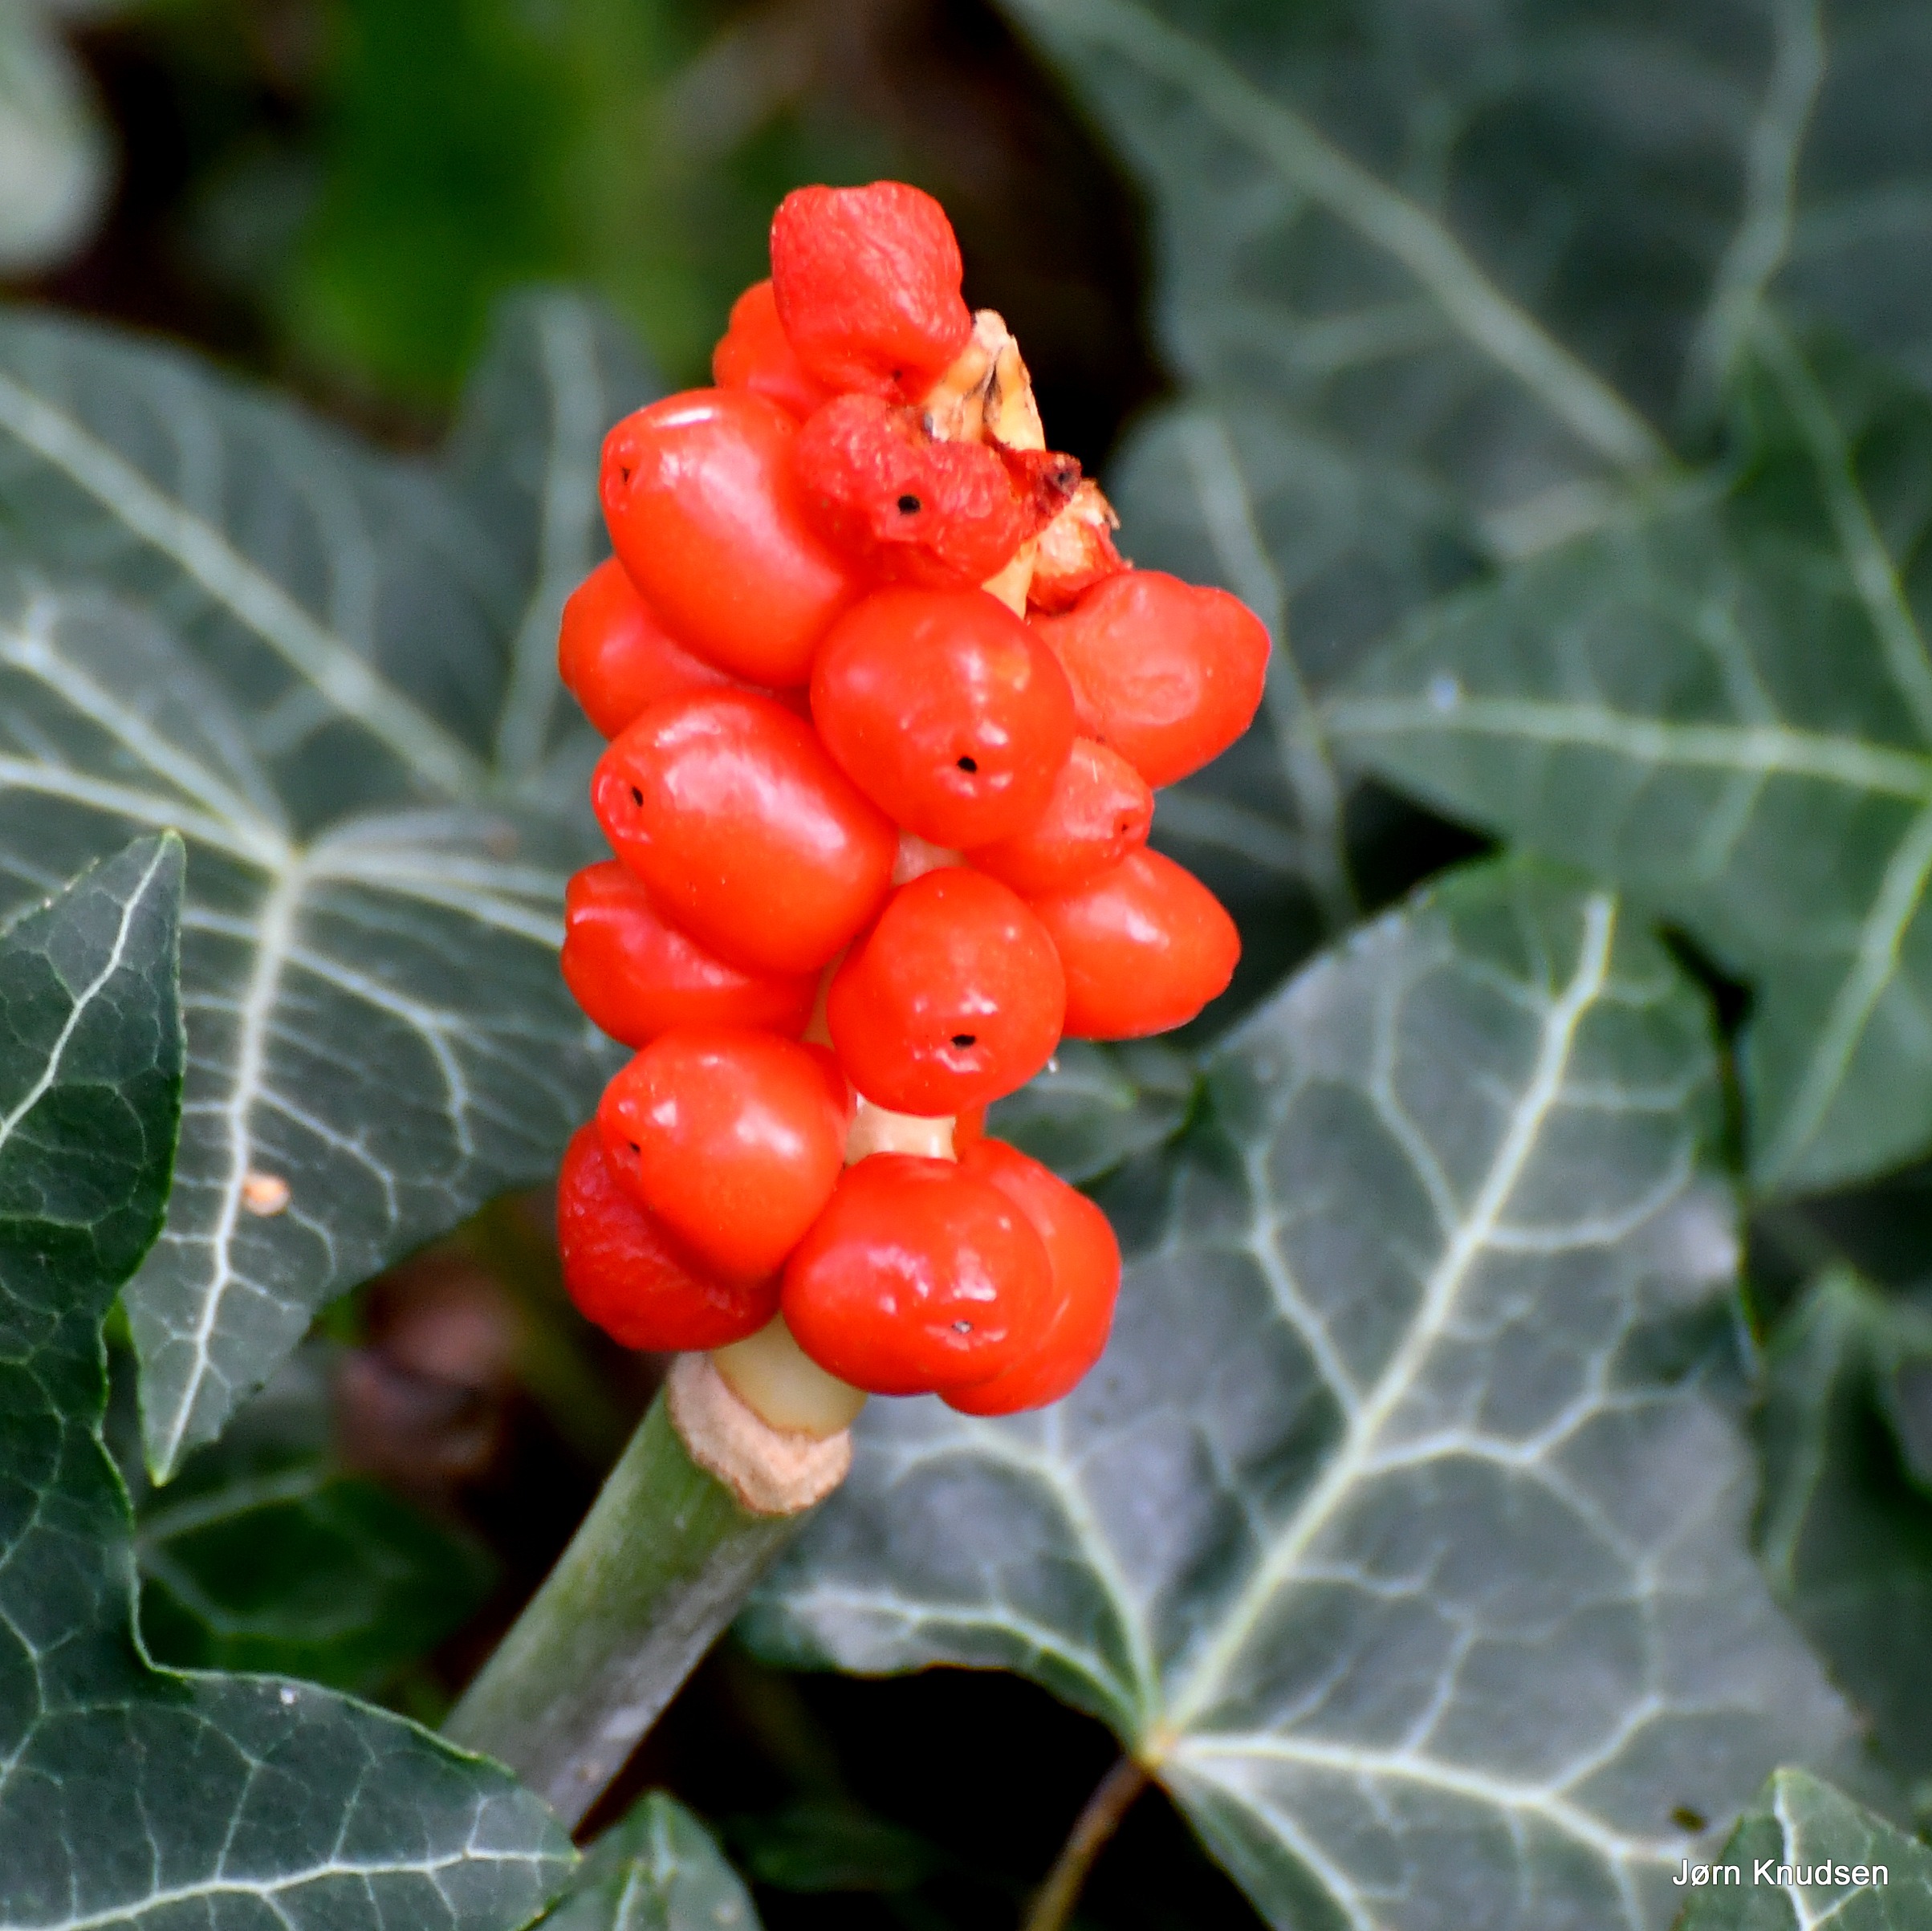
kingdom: Plantae
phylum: Tracheophyta
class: Liliopsida
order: Alismatales
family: Araceae
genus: Arum
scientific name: Arum
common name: Arumslægten
